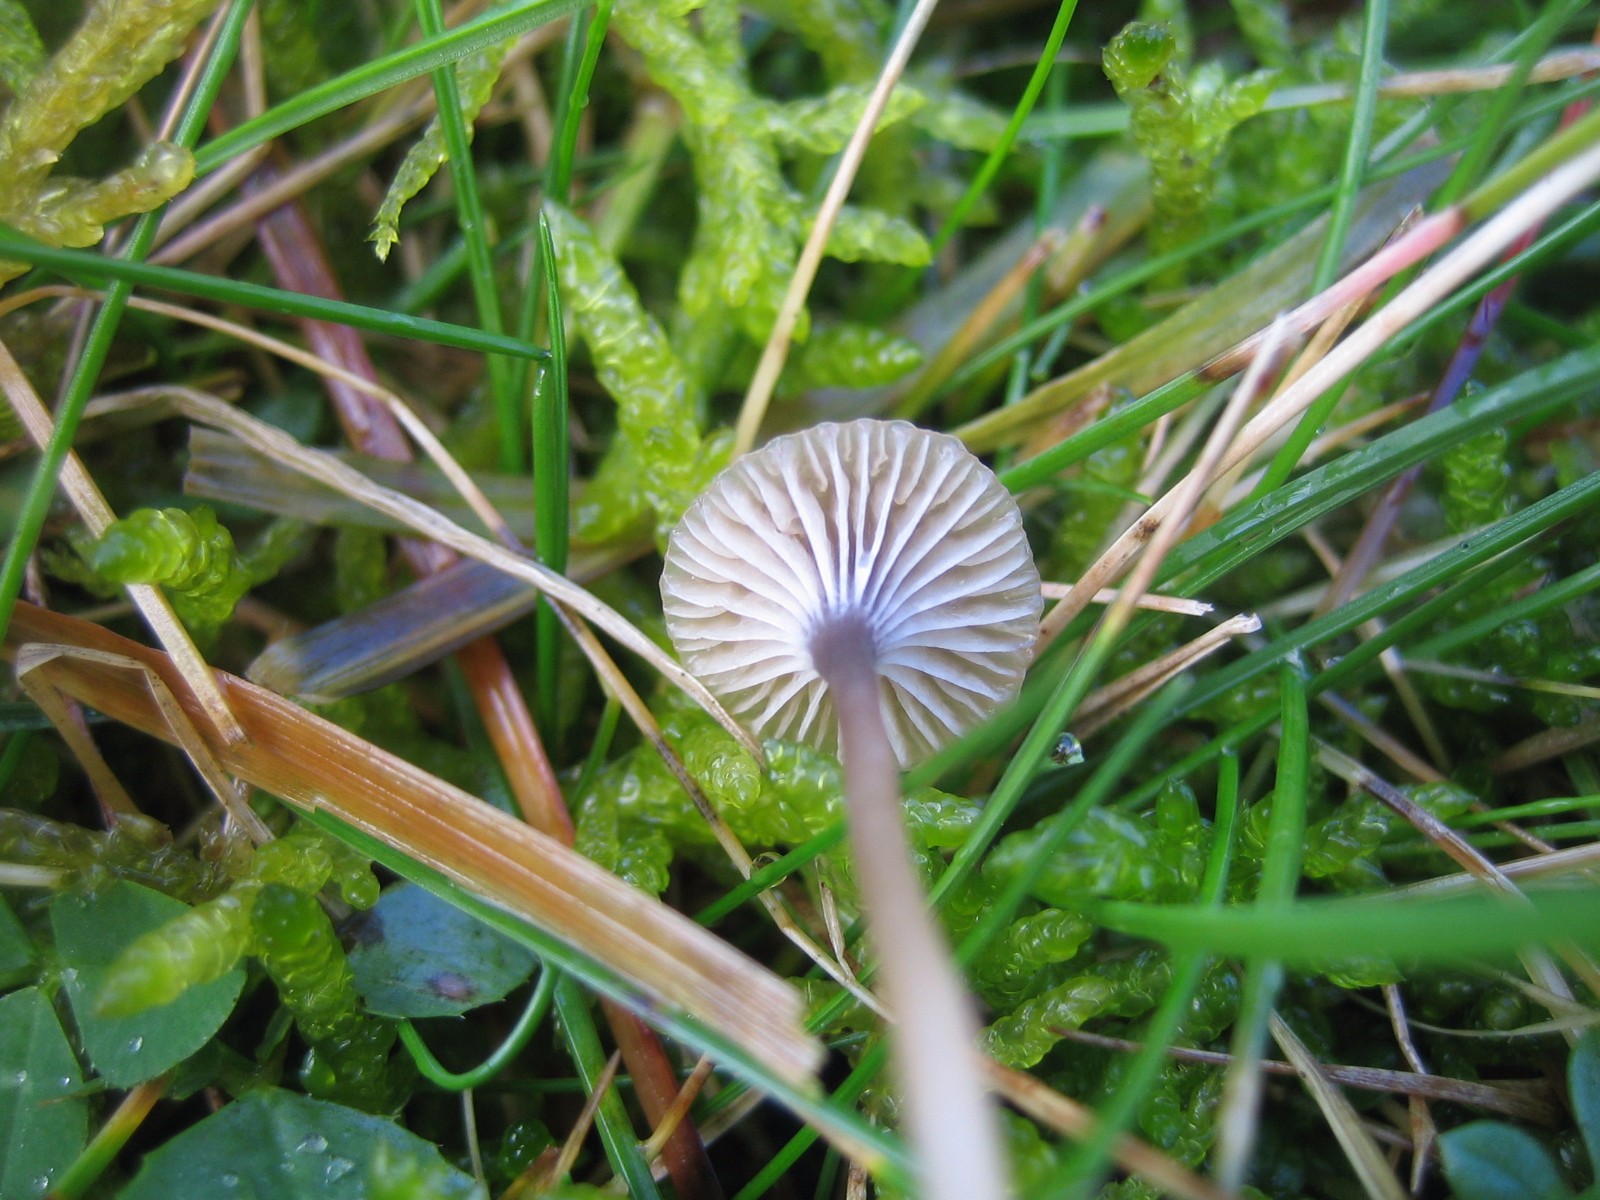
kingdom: Fungi
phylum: Basidiomycota
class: Agaricomycetes
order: Hymenochaetales
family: Rickenellaceae
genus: Rickenella
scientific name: Rickenella swartzii
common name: finstokket mosnavlehat
